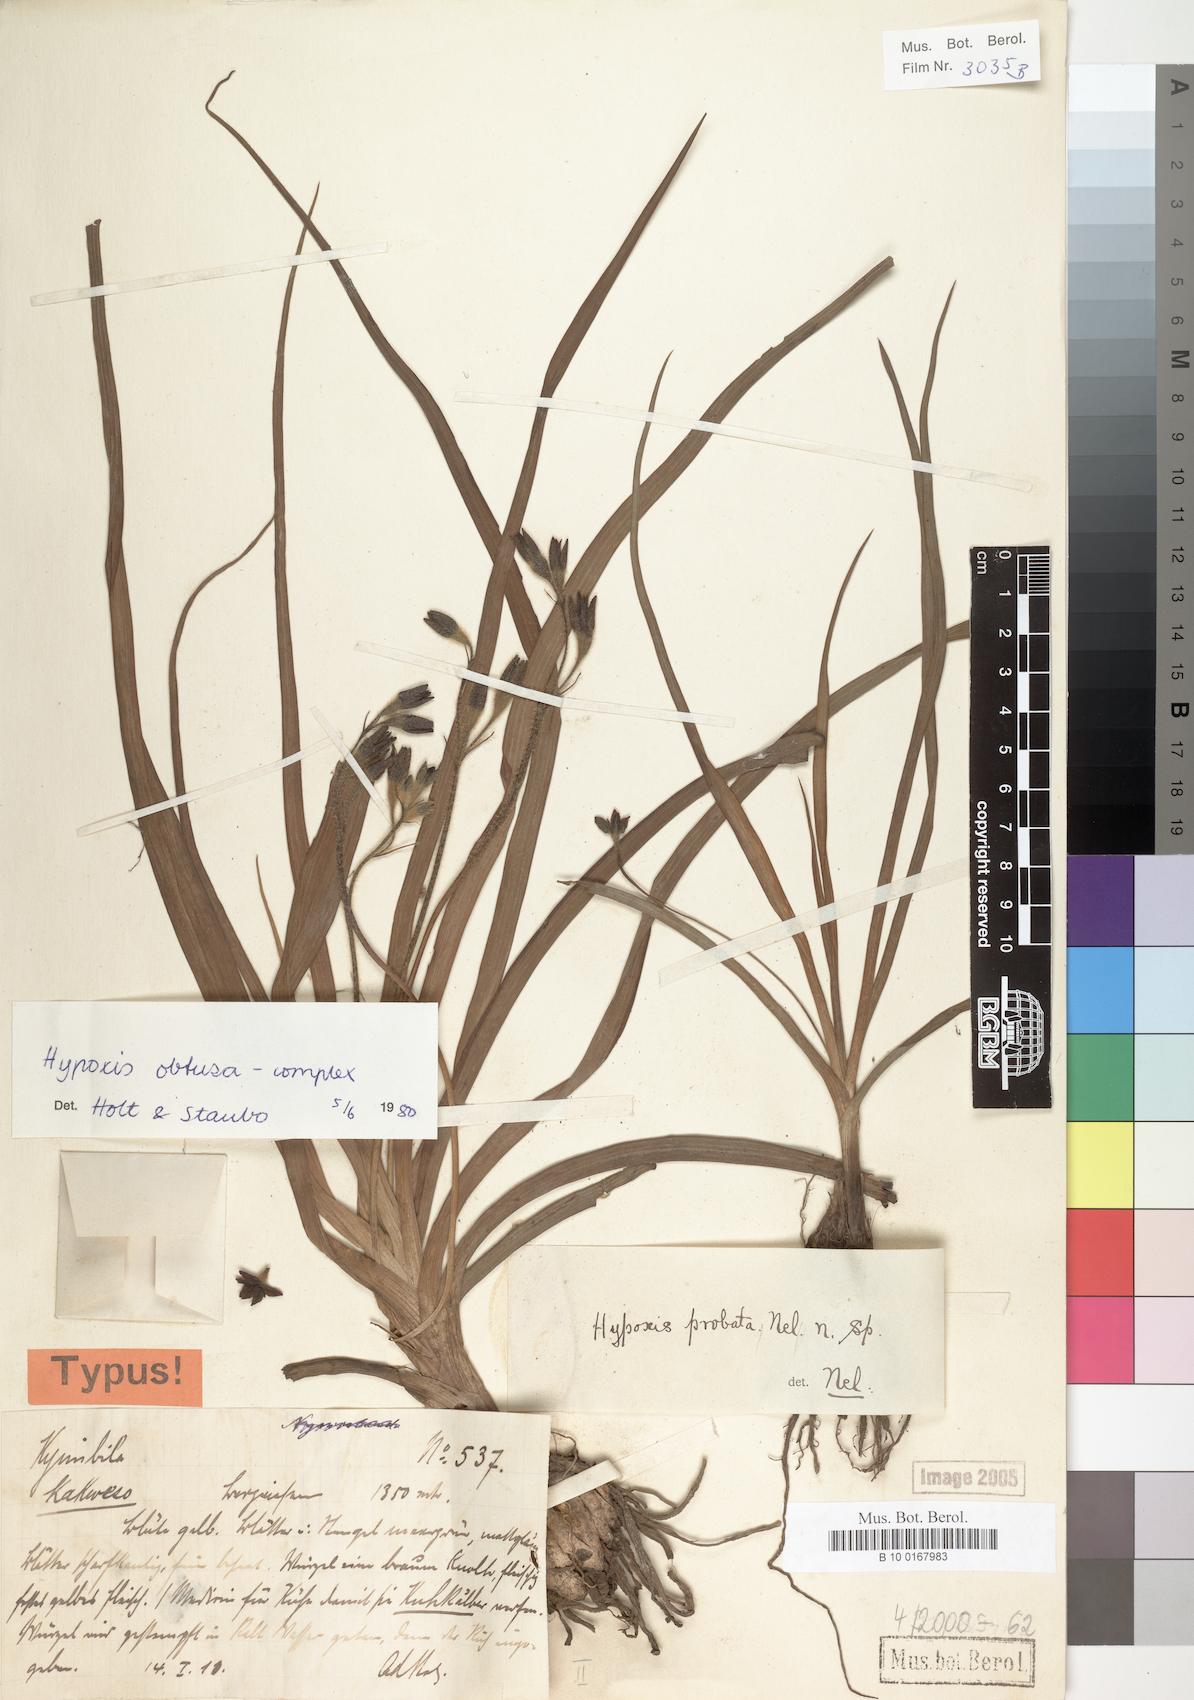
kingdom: Plantae
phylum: Tracheophyta
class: Liliopsida
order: Asparagales
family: Hypoxidaceae
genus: Hypoxis
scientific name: Hypoxis
